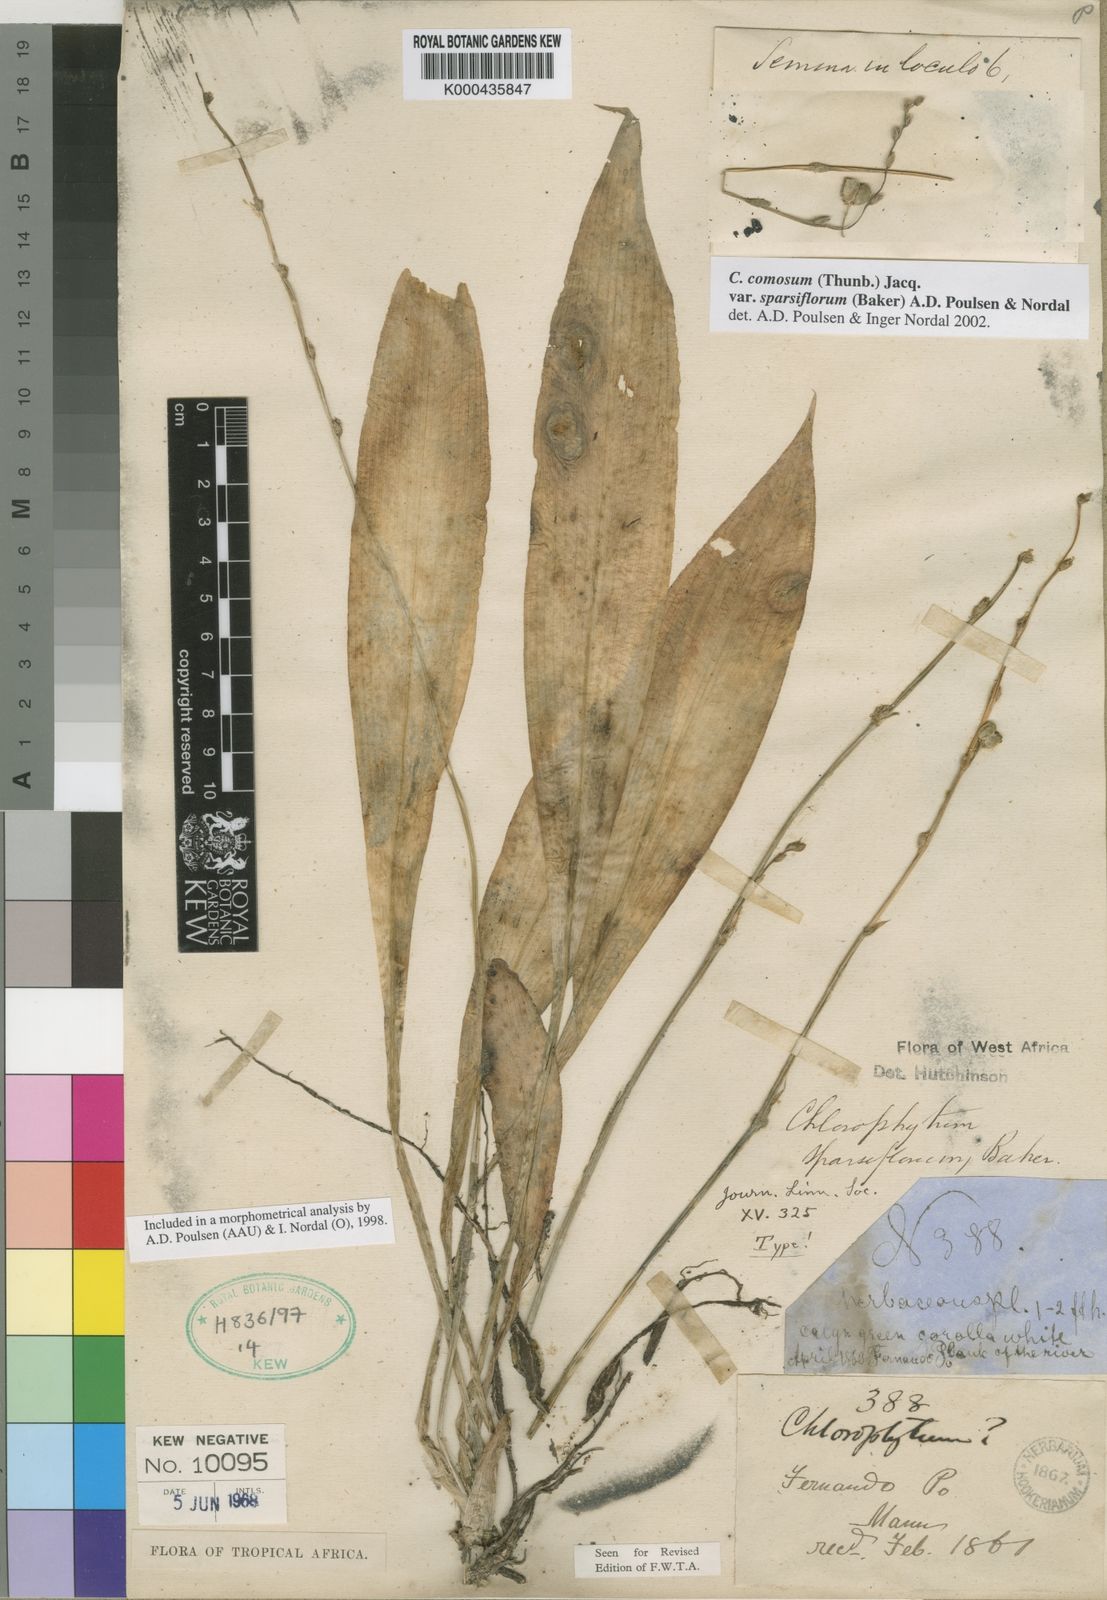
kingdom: Plantae
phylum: Tracheophyta
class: Liliopsida
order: Asparagales
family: Asparagaceae
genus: Chlorophytum
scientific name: Chlorophytum sparsiflorum
